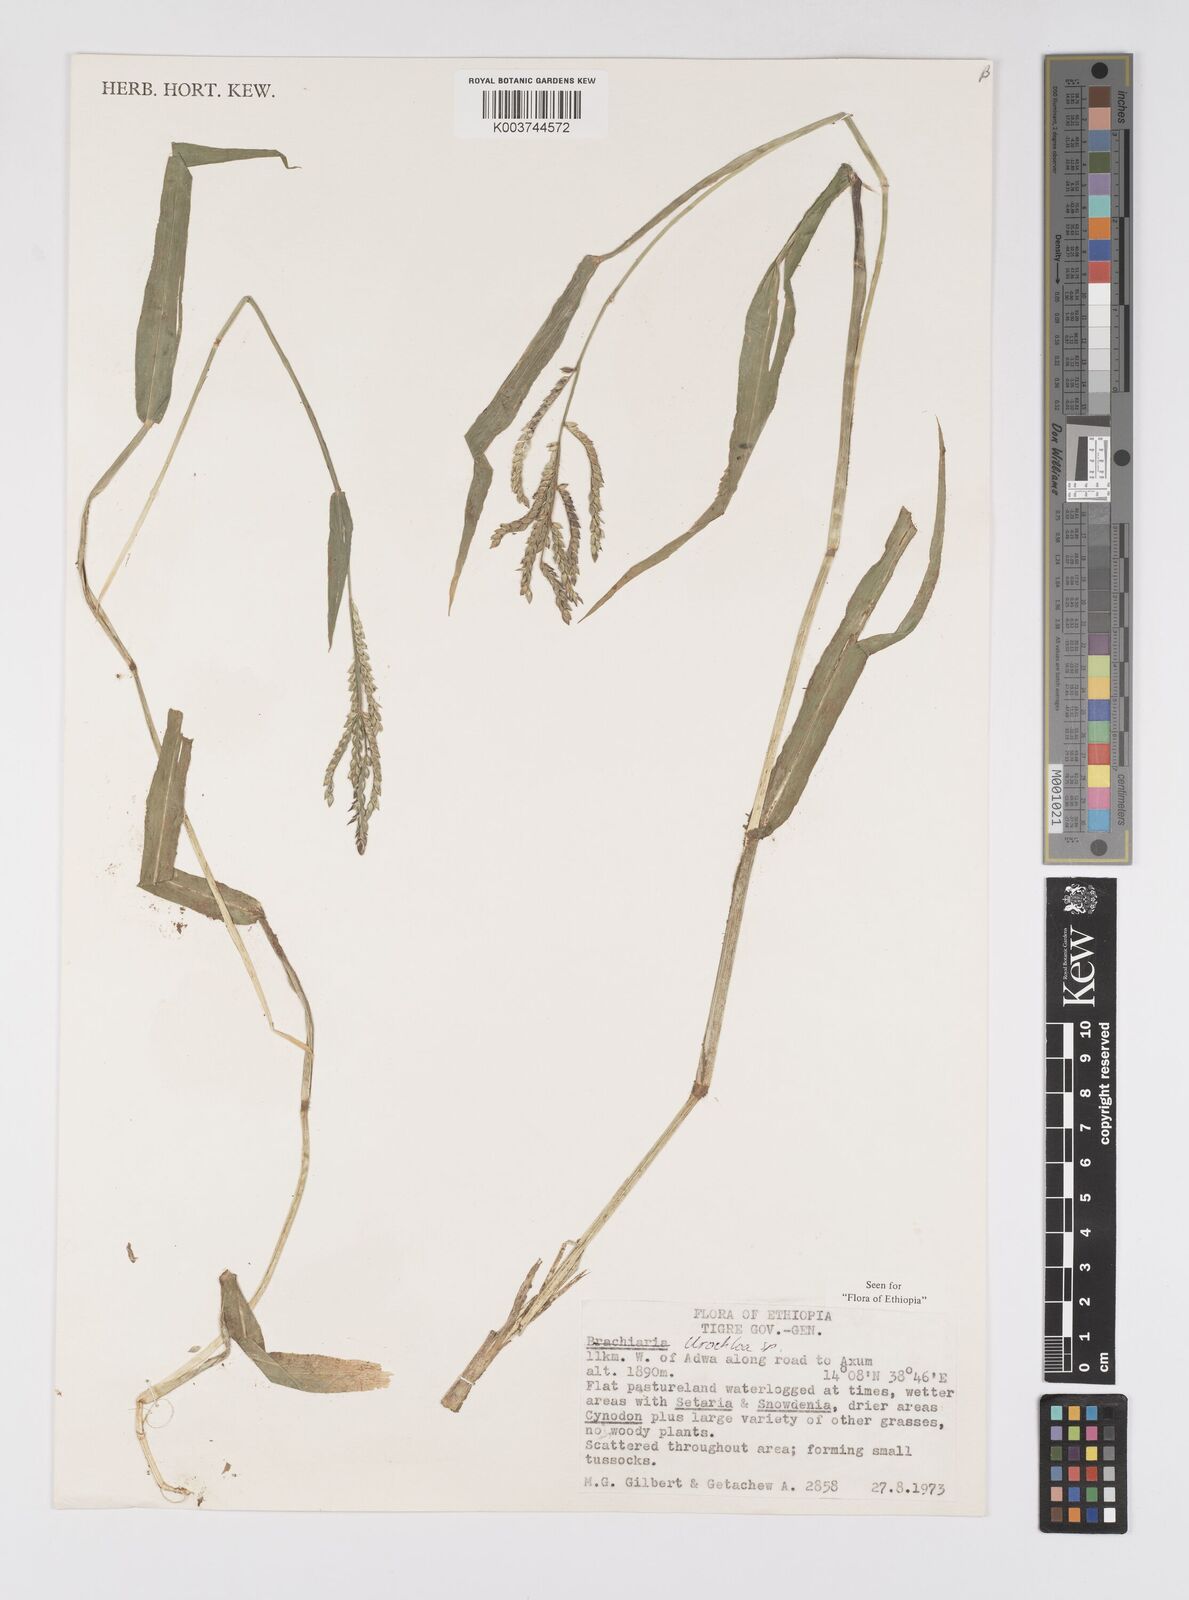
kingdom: Plantae
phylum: Tracheophyta
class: Liliopsida
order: Poales
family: Poaceae
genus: Urochloa
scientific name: Urochloa panicoides
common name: Sharp-flowered signal-grass
